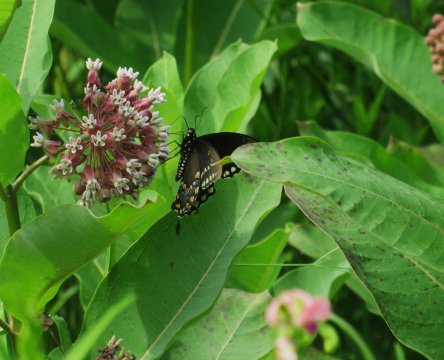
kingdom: Animalia
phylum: Arthropoda
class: Insecta
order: Lepidoptera
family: Papilionidae
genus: Pterourus
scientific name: Pterourus troilus
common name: Spicebush Swallowtail
